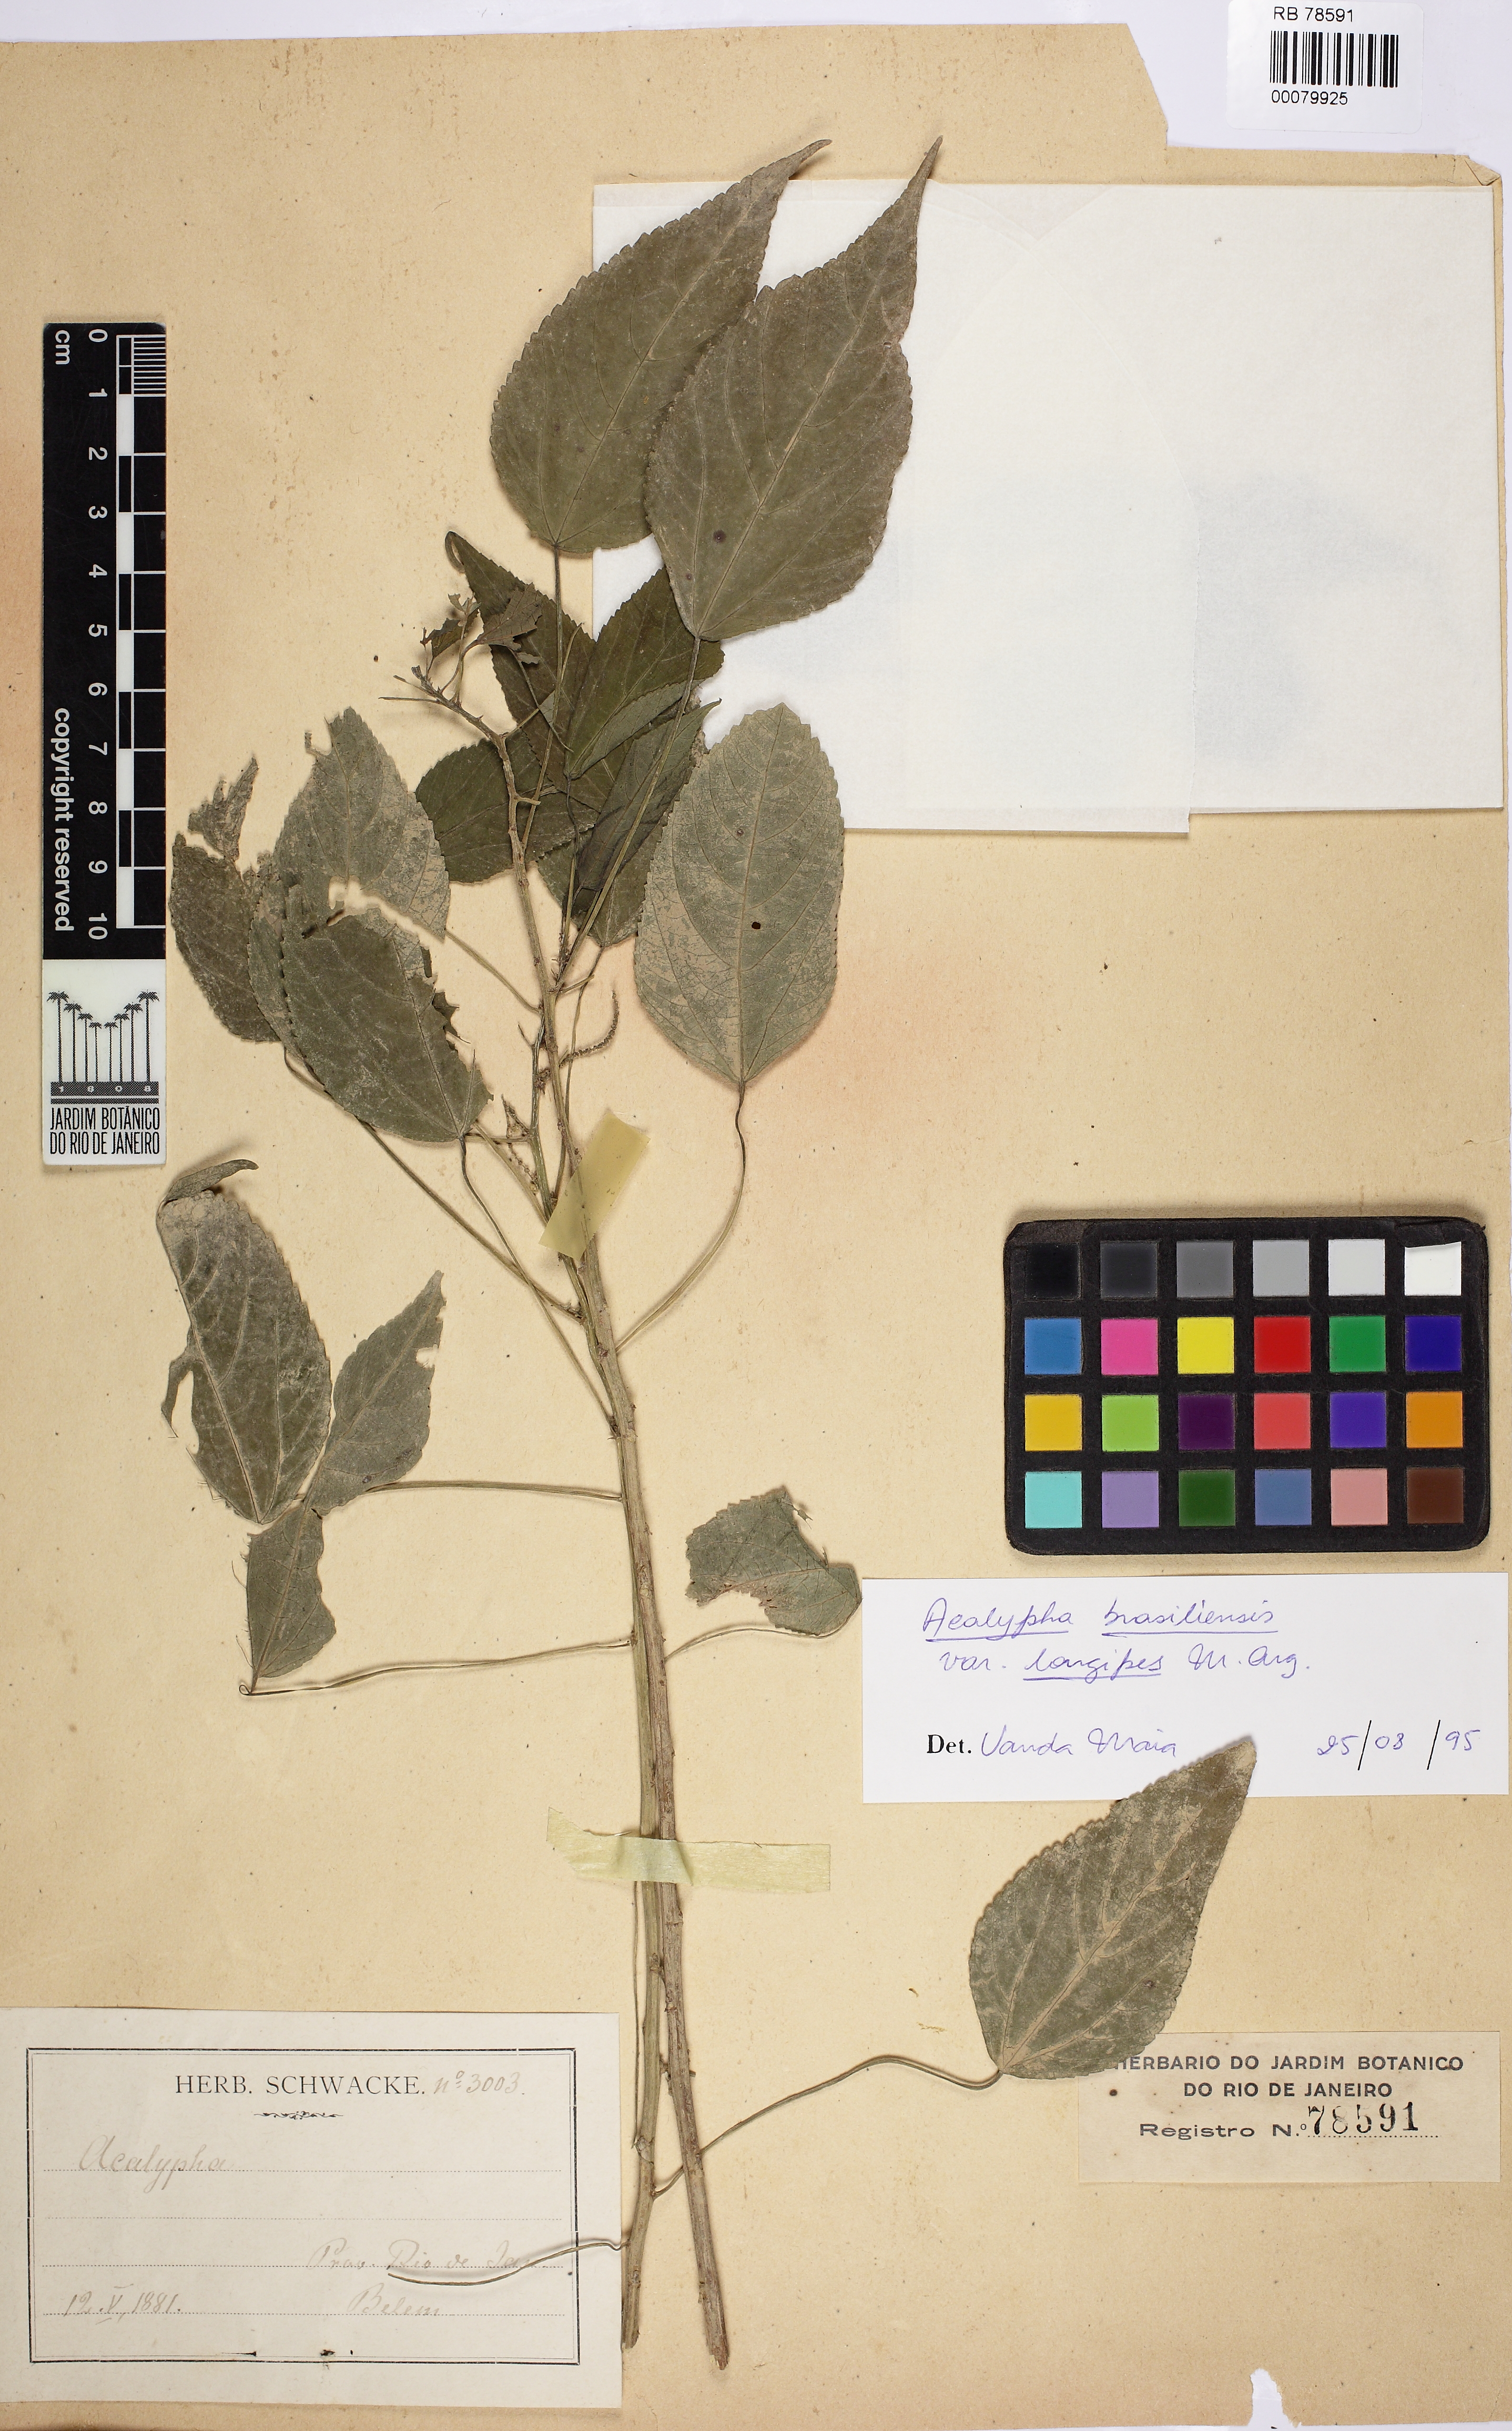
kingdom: Plantae
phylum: Tracheophyta
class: Magnoliopsida
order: Malpighiales
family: Euphorbiaceae
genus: Acalypha
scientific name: Acalypha brasiliensis
